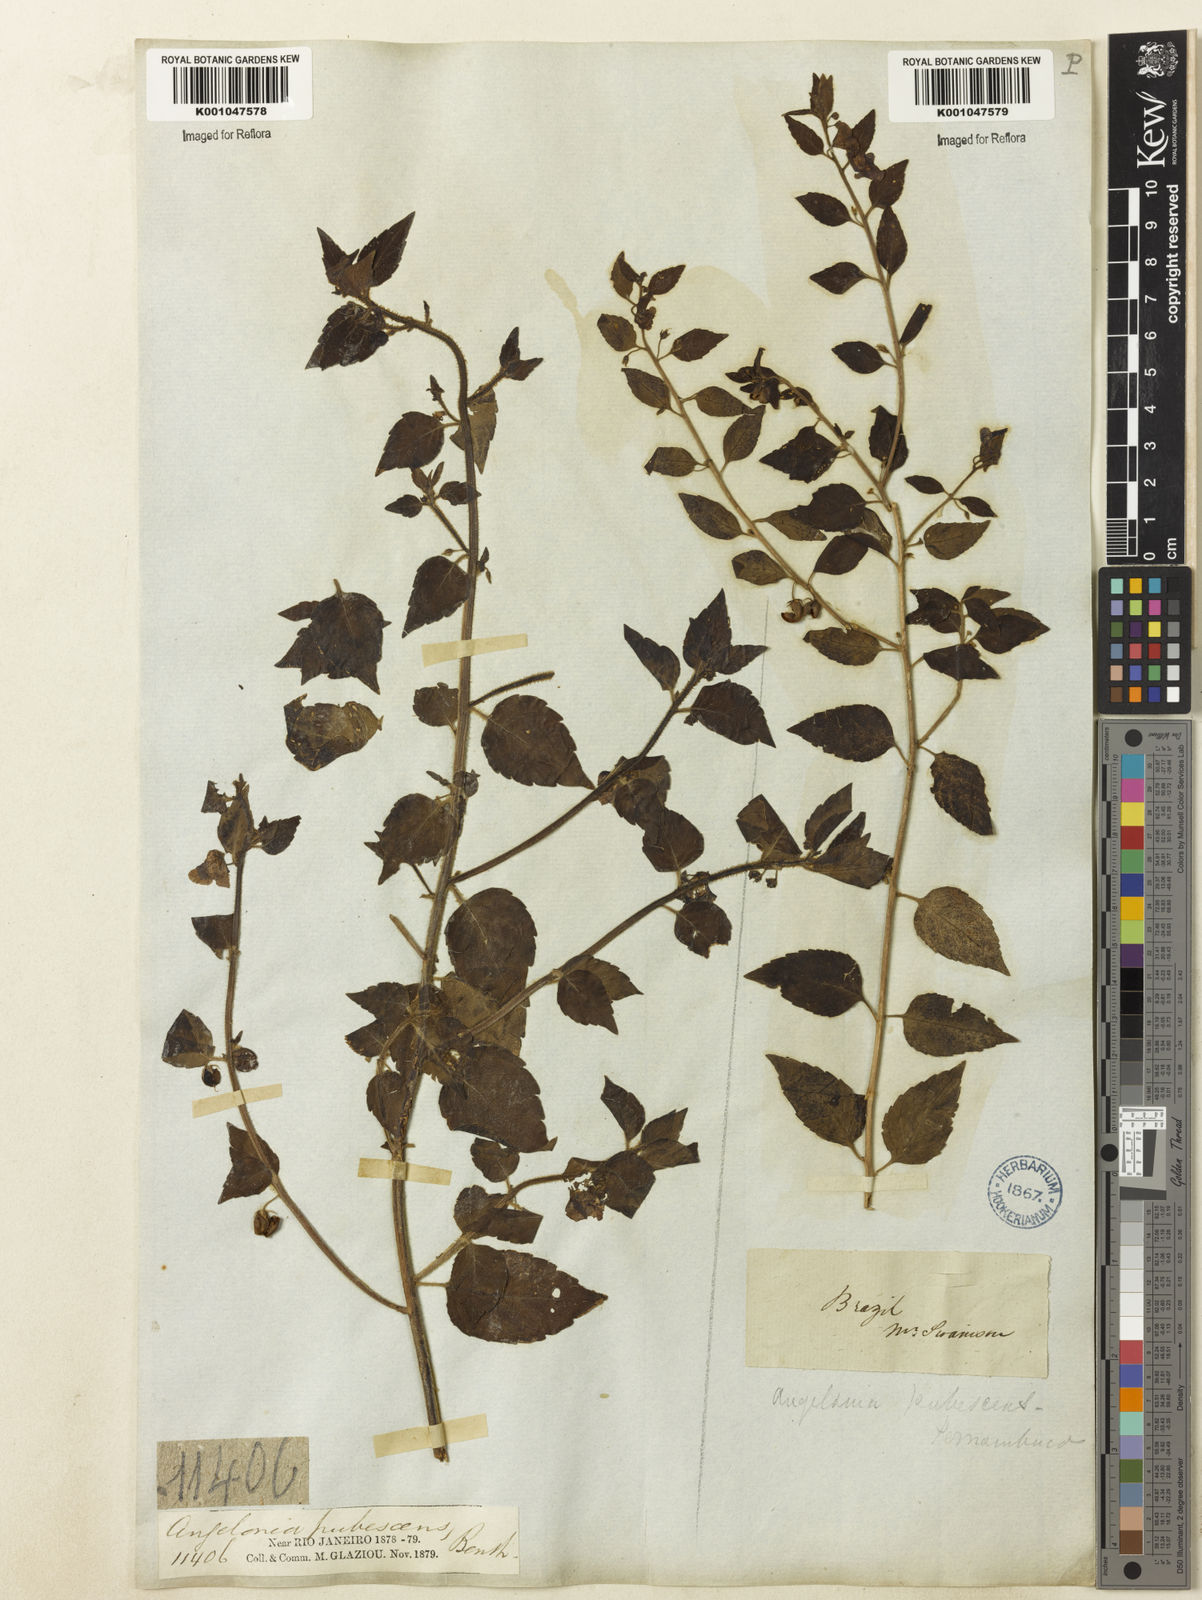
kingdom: Plantae
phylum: Tracheophyta
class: Magnoliopsida
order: Lamiales
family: Plantaginaceae
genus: Angelonia
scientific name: Angelonia pubescens
